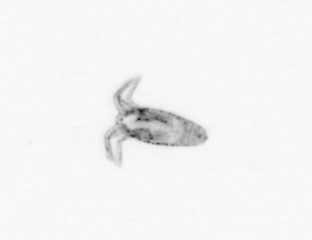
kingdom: Animalia
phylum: Arthropoda
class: Copepoda
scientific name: Copepoda
